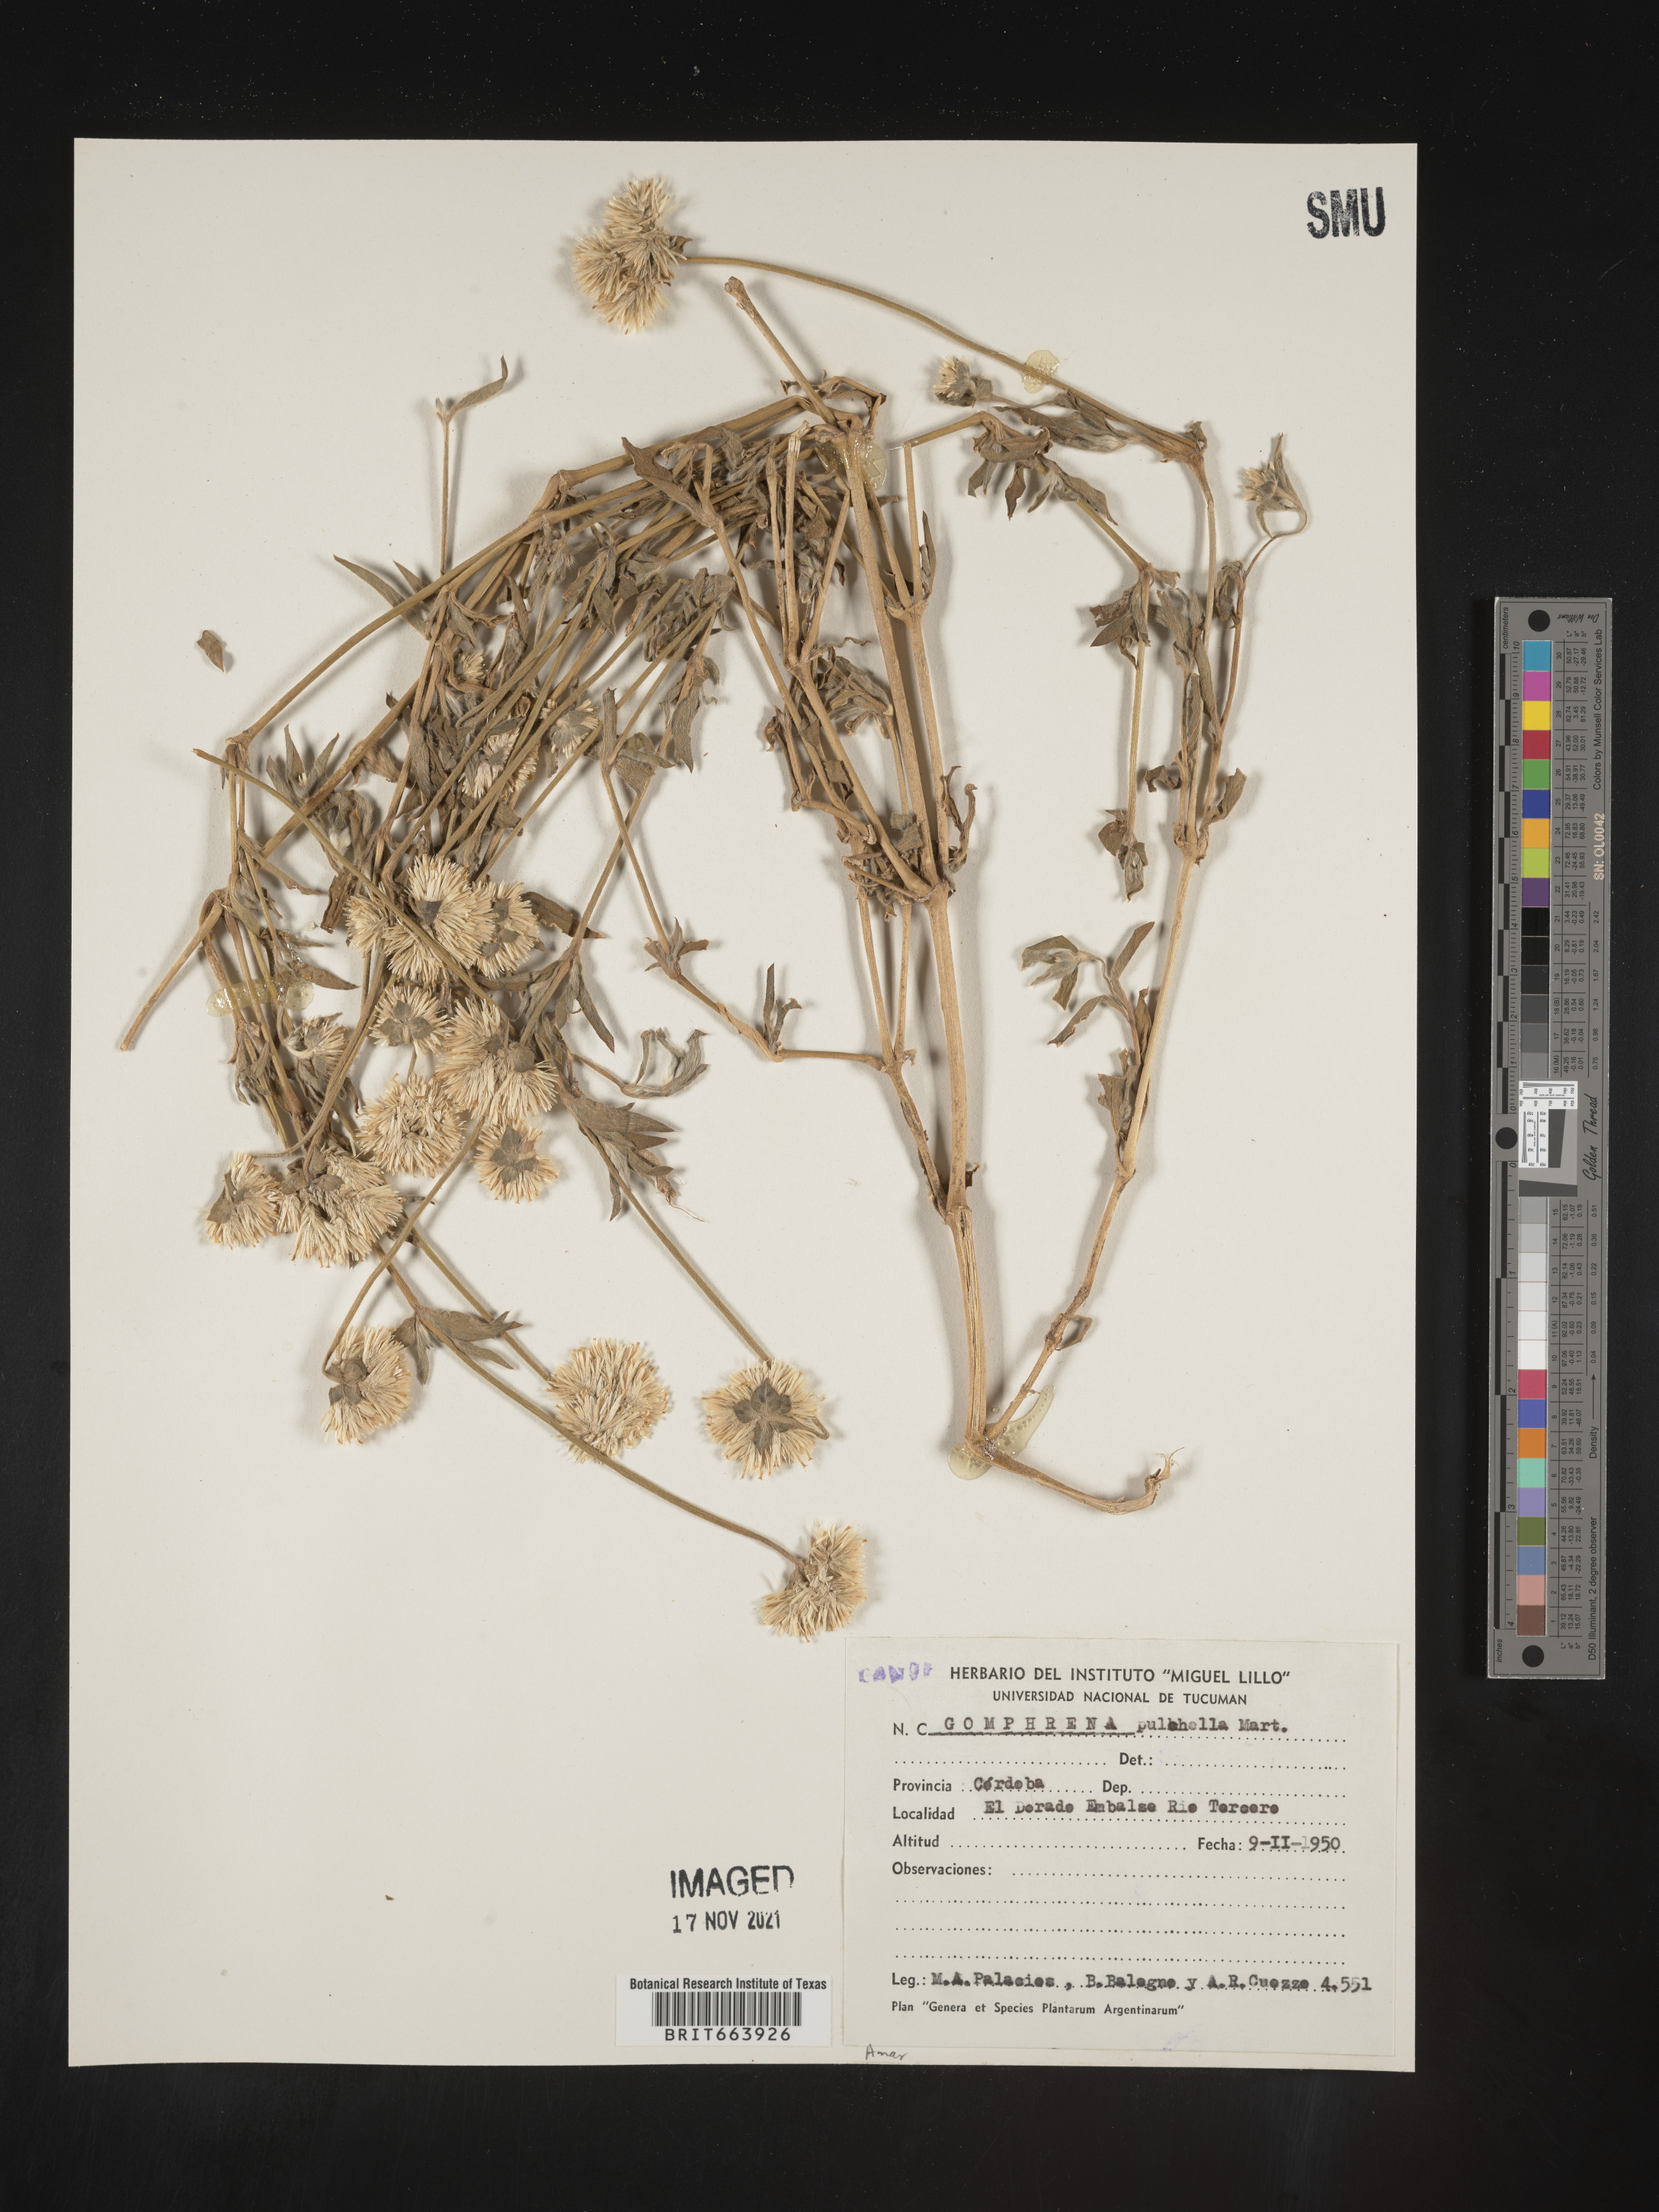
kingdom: Plantae
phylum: Tracheophyta
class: Magnoliopsida
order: Caryophyllales
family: Amaranthaceae
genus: Gomphrena
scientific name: Gomphrena
